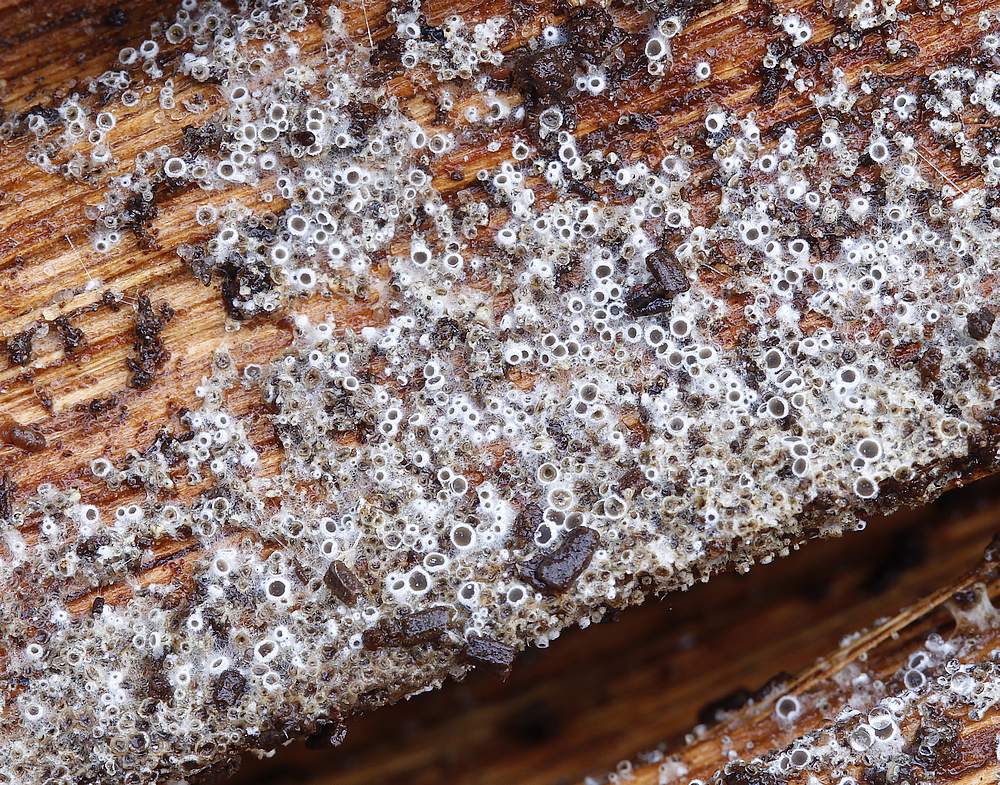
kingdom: Fungi
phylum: Ascomycota
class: Leotiomycetes
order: Helotiales
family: Arachnopezizaceae
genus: Eriopezia
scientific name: Eriopezia caesia
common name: ege-spindskive
